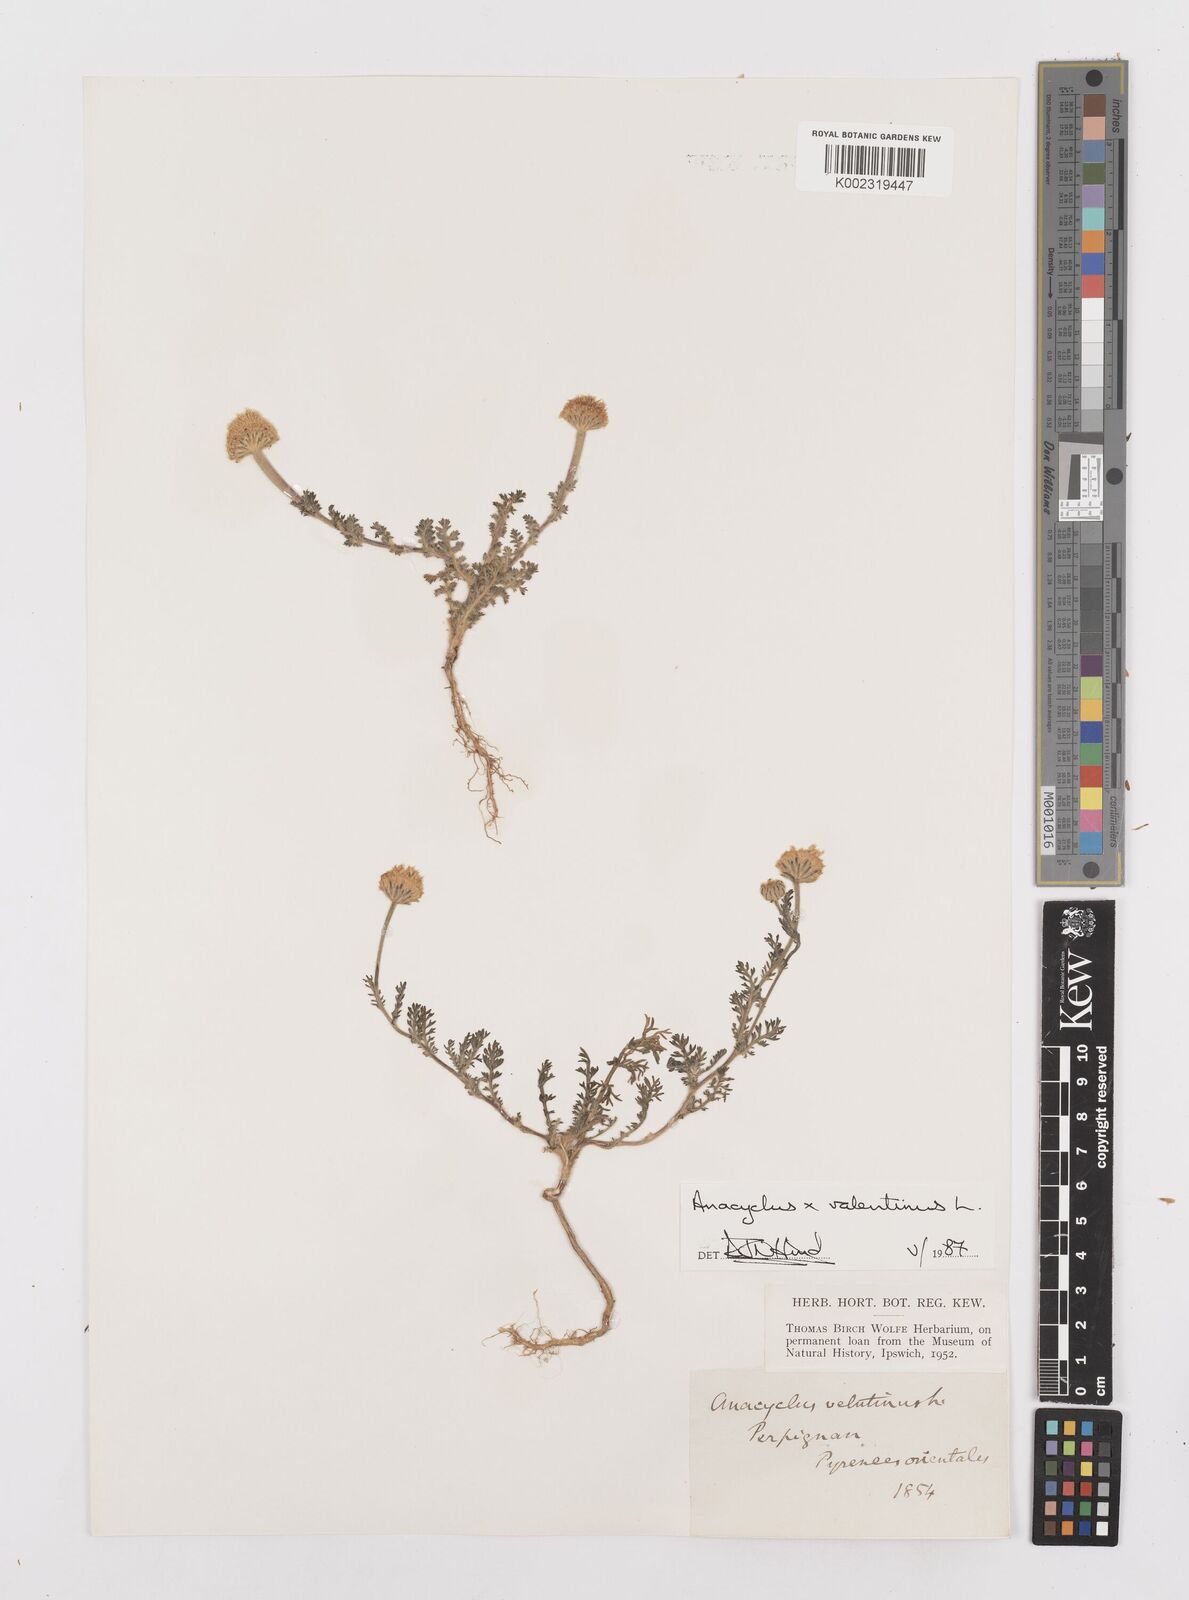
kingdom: Plantae
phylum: Tracheophyta
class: Magnoliopsida
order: Asterales
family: Asteraceae
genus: Anacyclus
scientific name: Anacyclus valentinus
